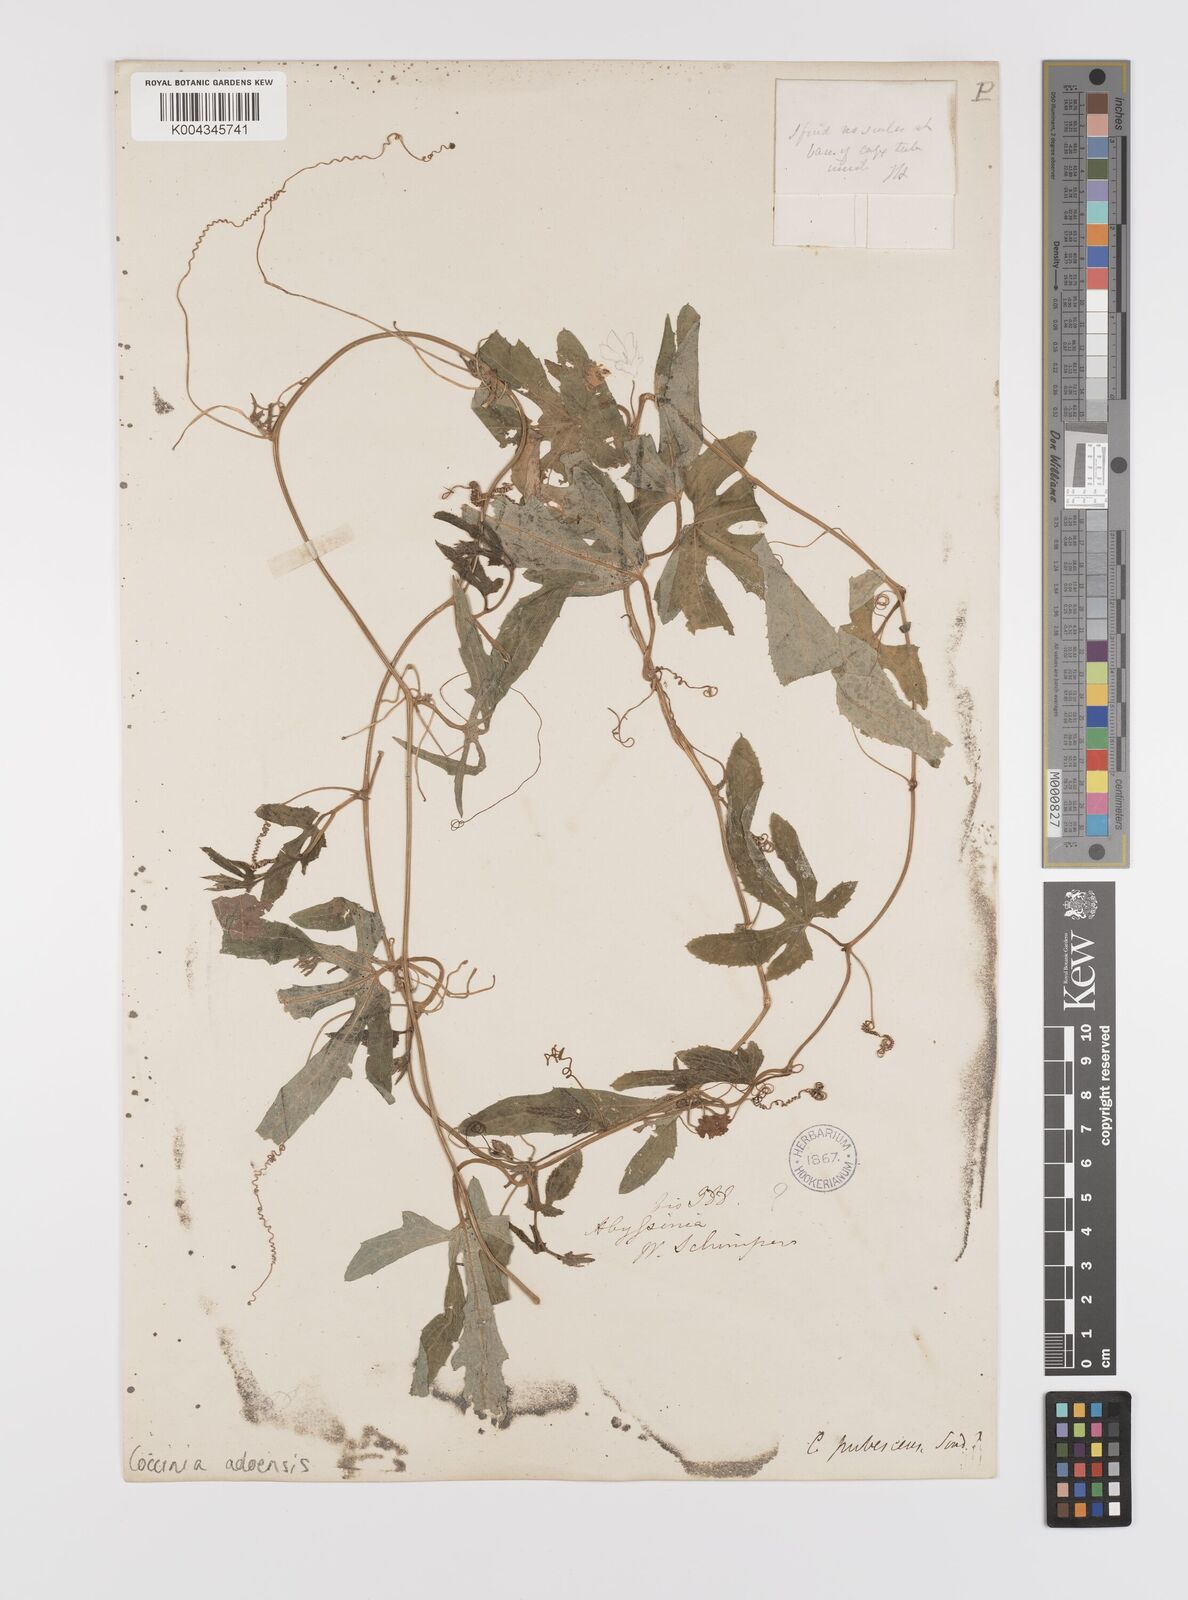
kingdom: Plantae
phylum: Tracheophyta
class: Magnoliopsida
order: Cucurbitales
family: Cucurbitaceae
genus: Coccinia
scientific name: Coccinia adoensis
